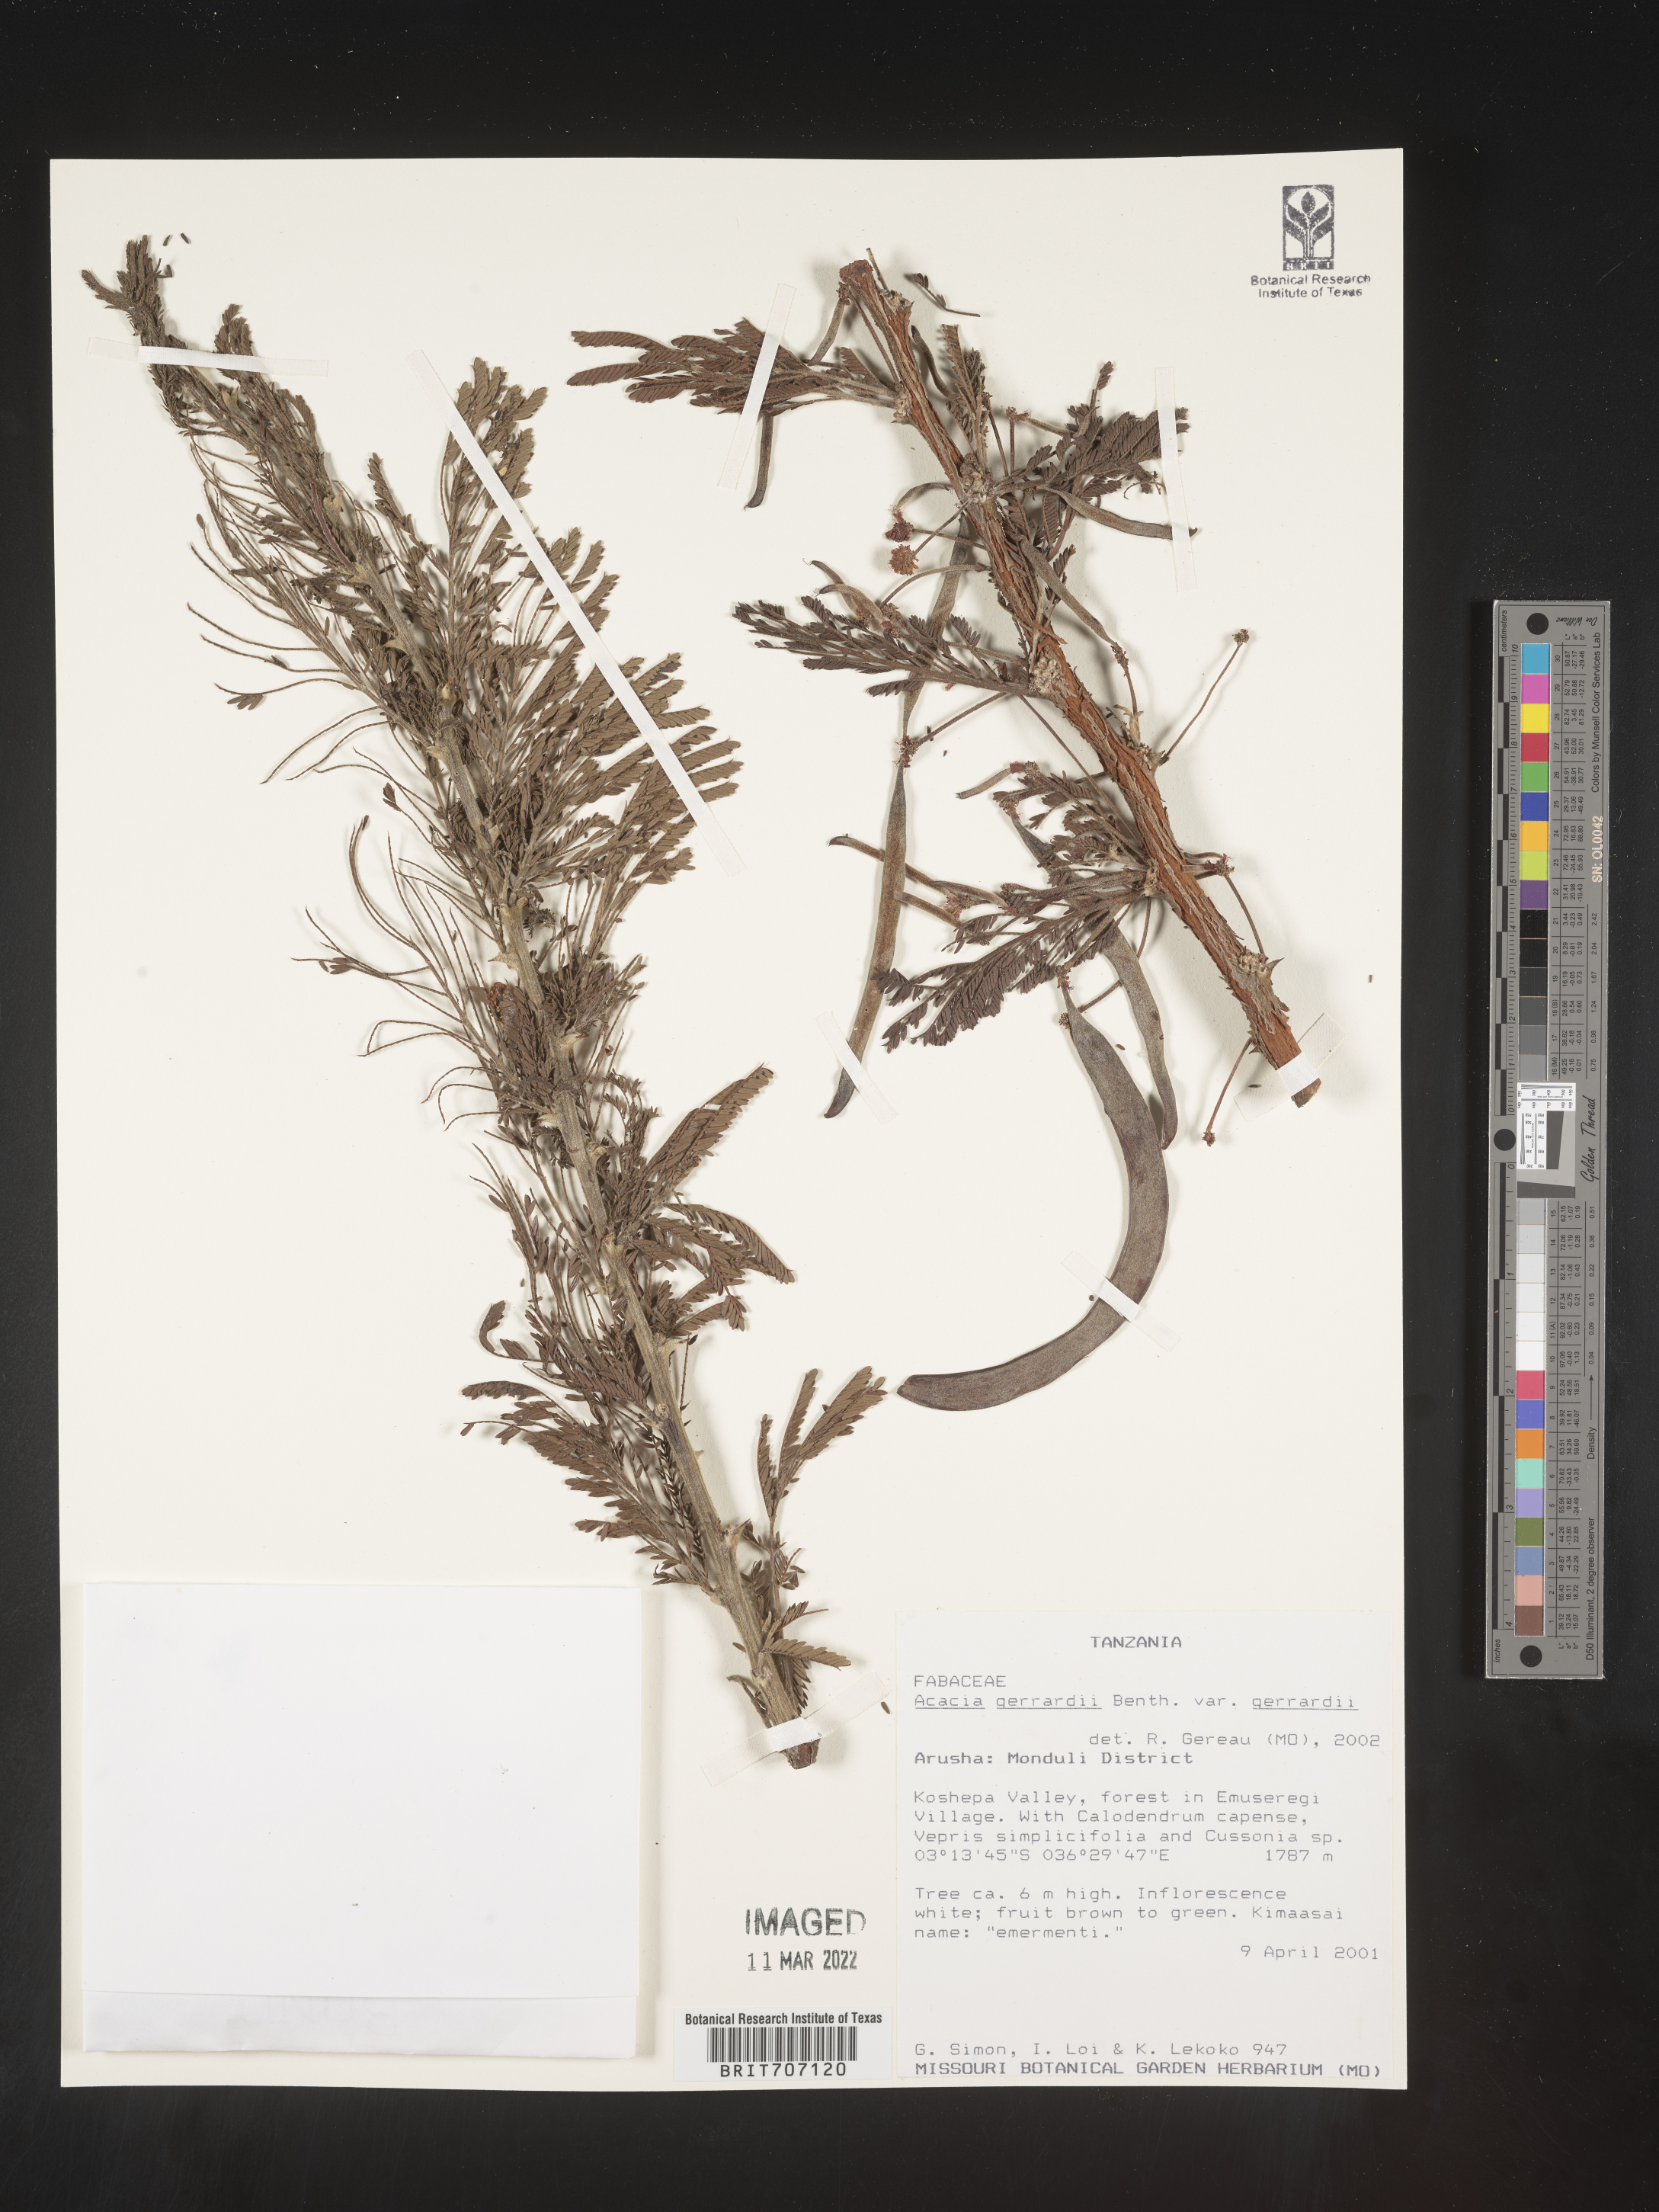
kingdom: Plantae
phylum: Tracheophyta
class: Magnoliopsida
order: Fabales
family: Fabaceae
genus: Acacia
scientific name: Acacia
